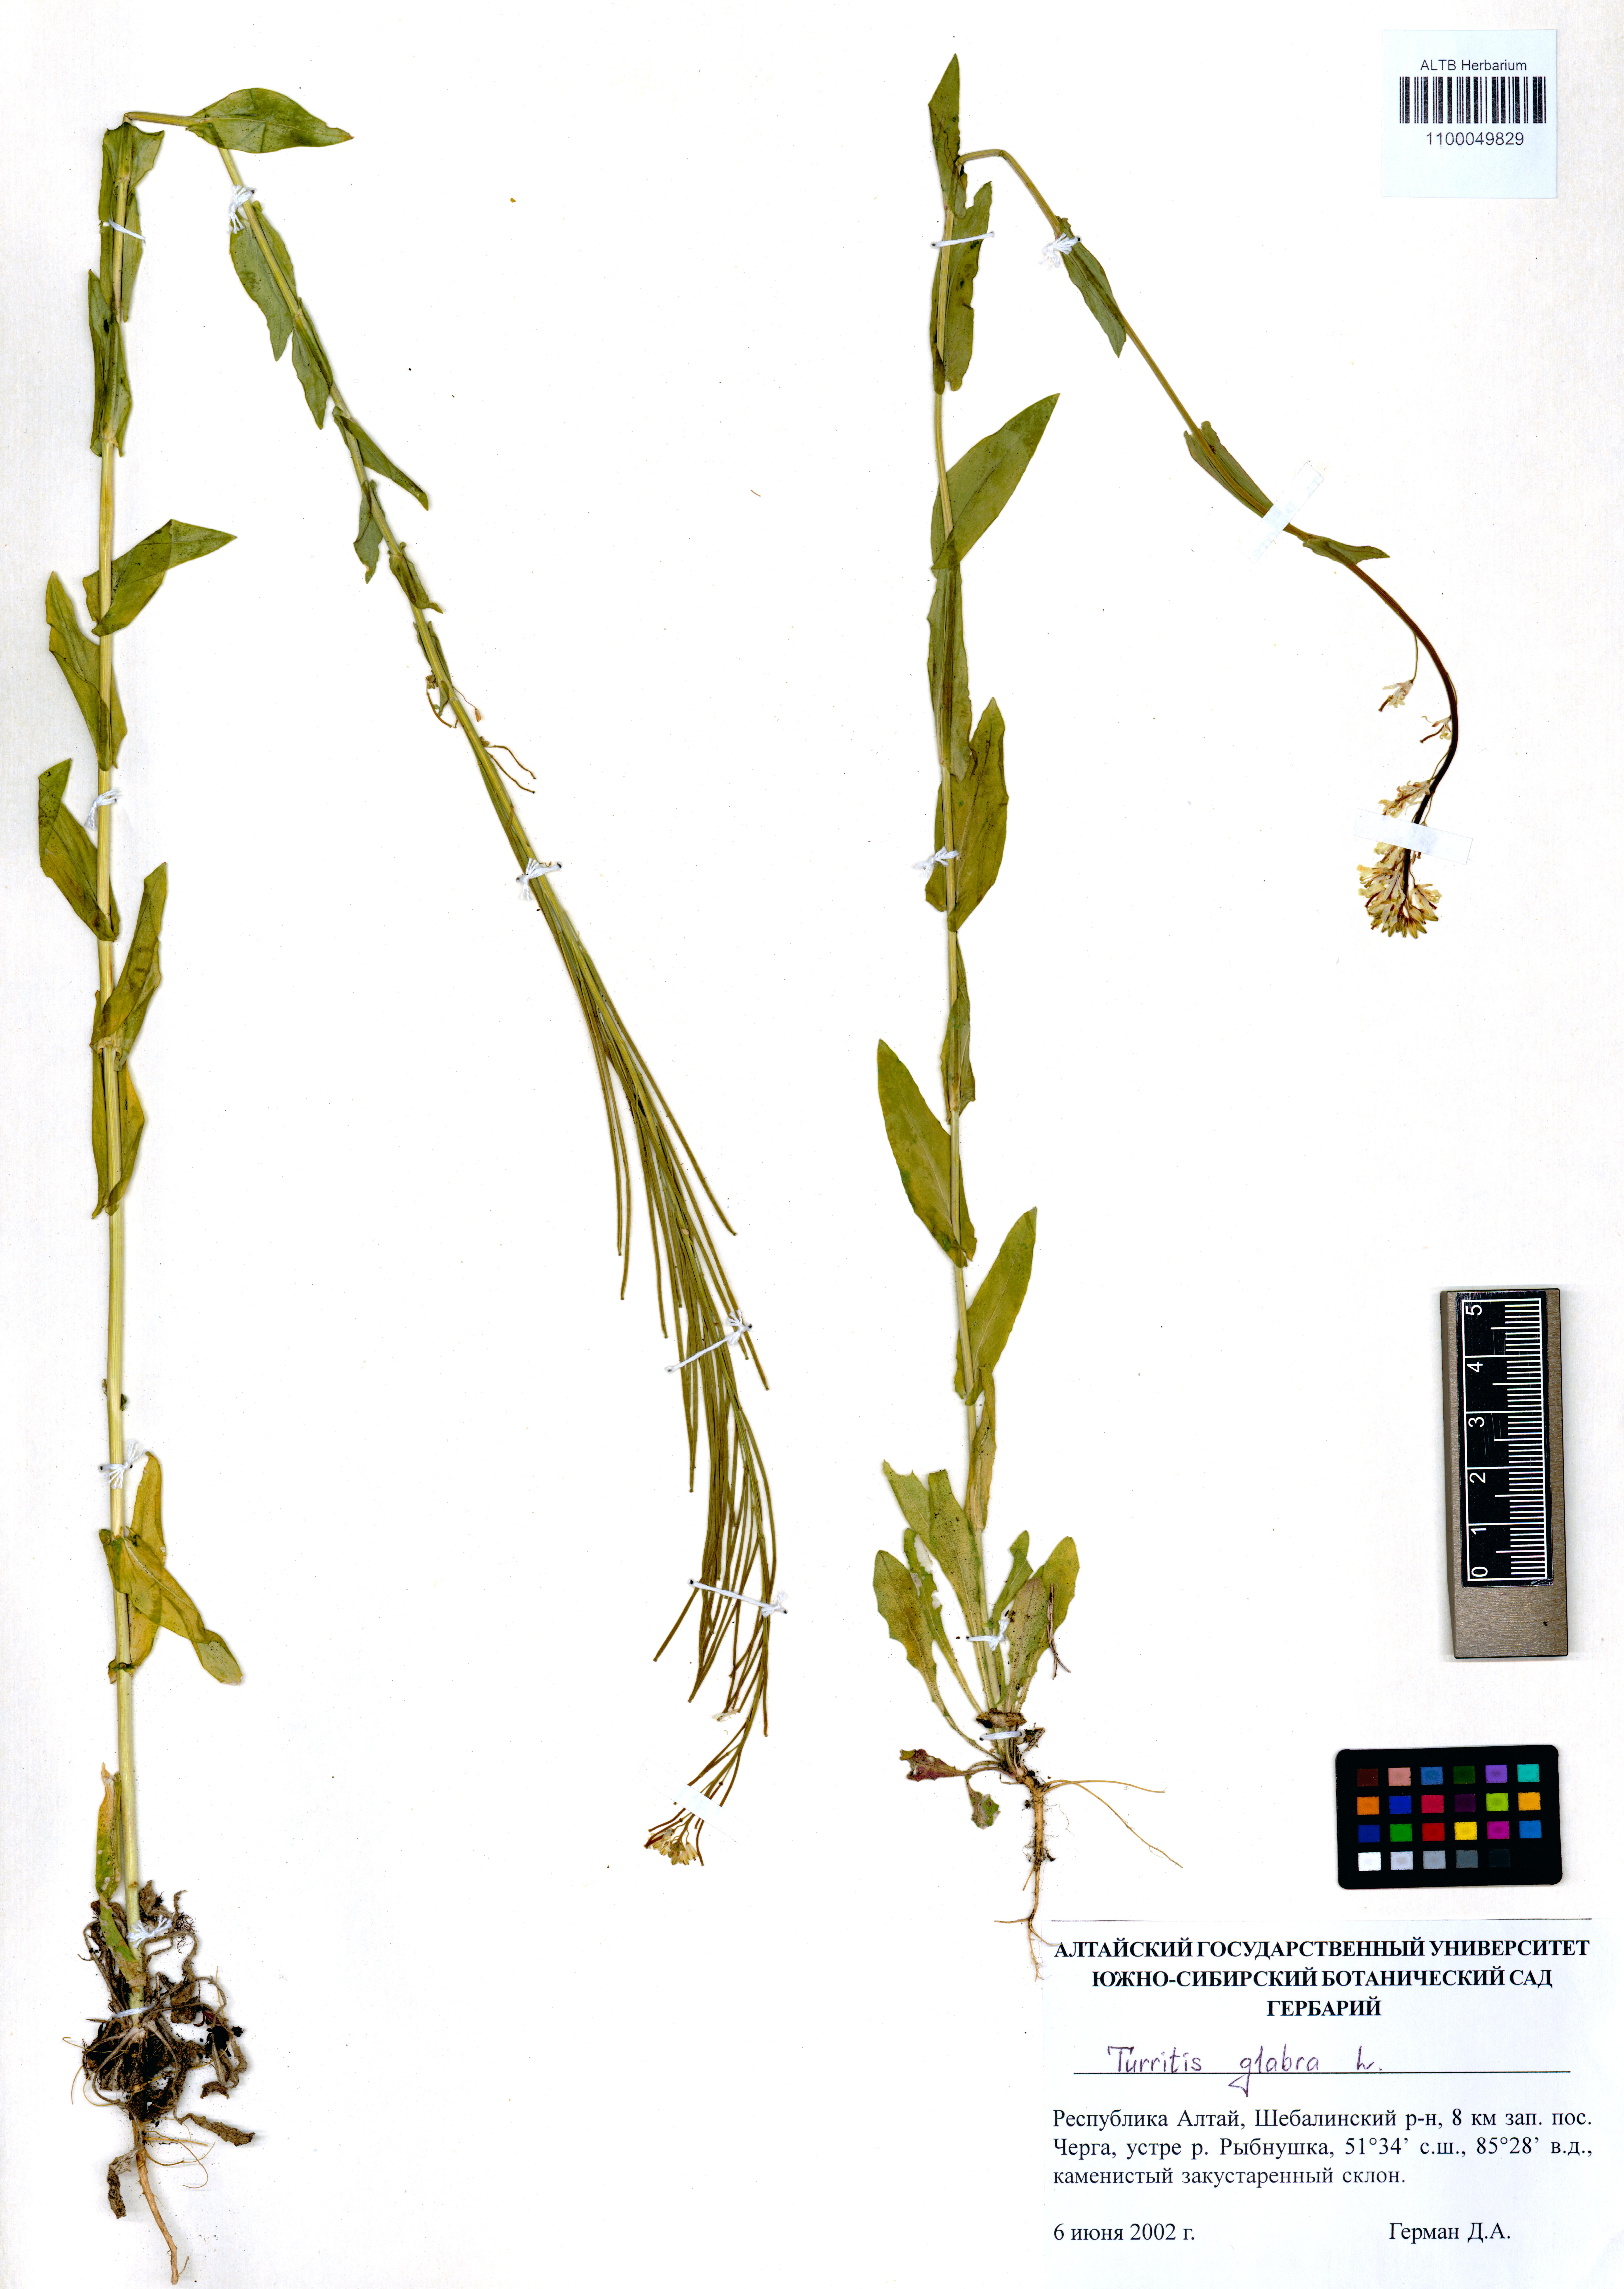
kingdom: Plantae
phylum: Tracheophyta
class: Magnoliopsida
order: Brassicales
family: Brassicaceae
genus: Turritis
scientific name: Turritis glabra
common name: Tower rockcress
